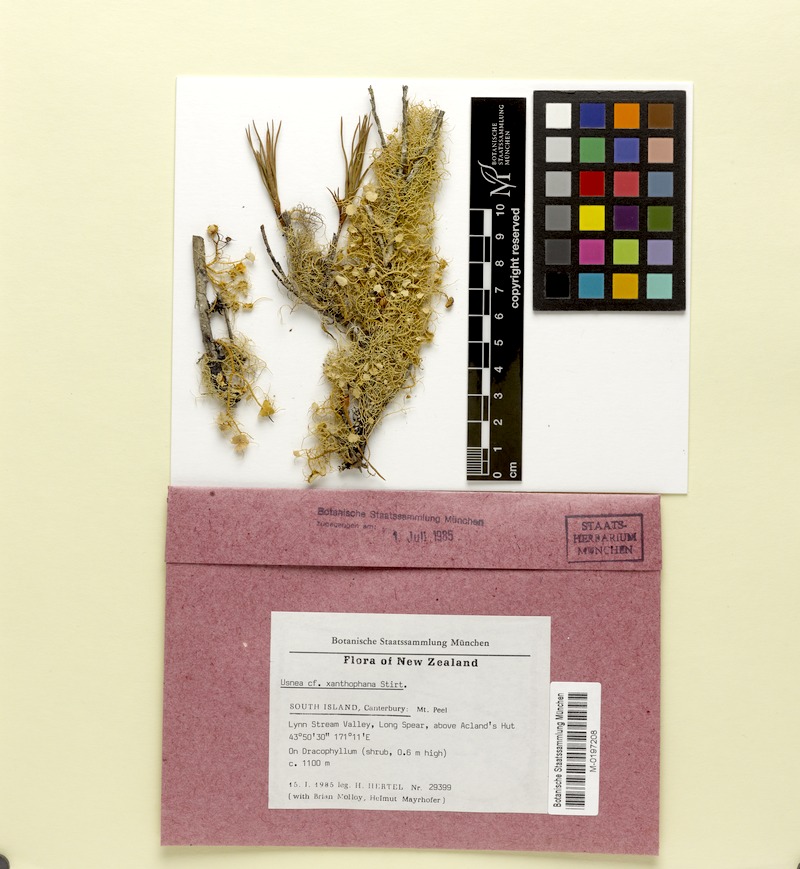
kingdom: Fungi
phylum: Ascomycota
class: Lecanoromycetes
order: Lecanorales
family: Parmeliaceae
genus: Usnea
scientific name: Usnea
